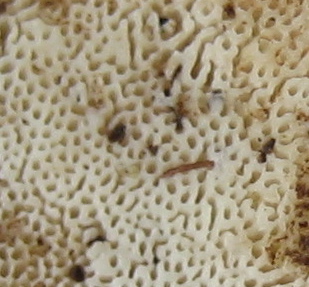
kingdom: Fungi
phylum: Basidiomycota
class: Agaricomycetes
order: Polyporales
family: Incrustoporiaceae
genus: Tyromyces
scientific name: Tyromyces lacteus
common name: mælkehvid kødporesvamp
